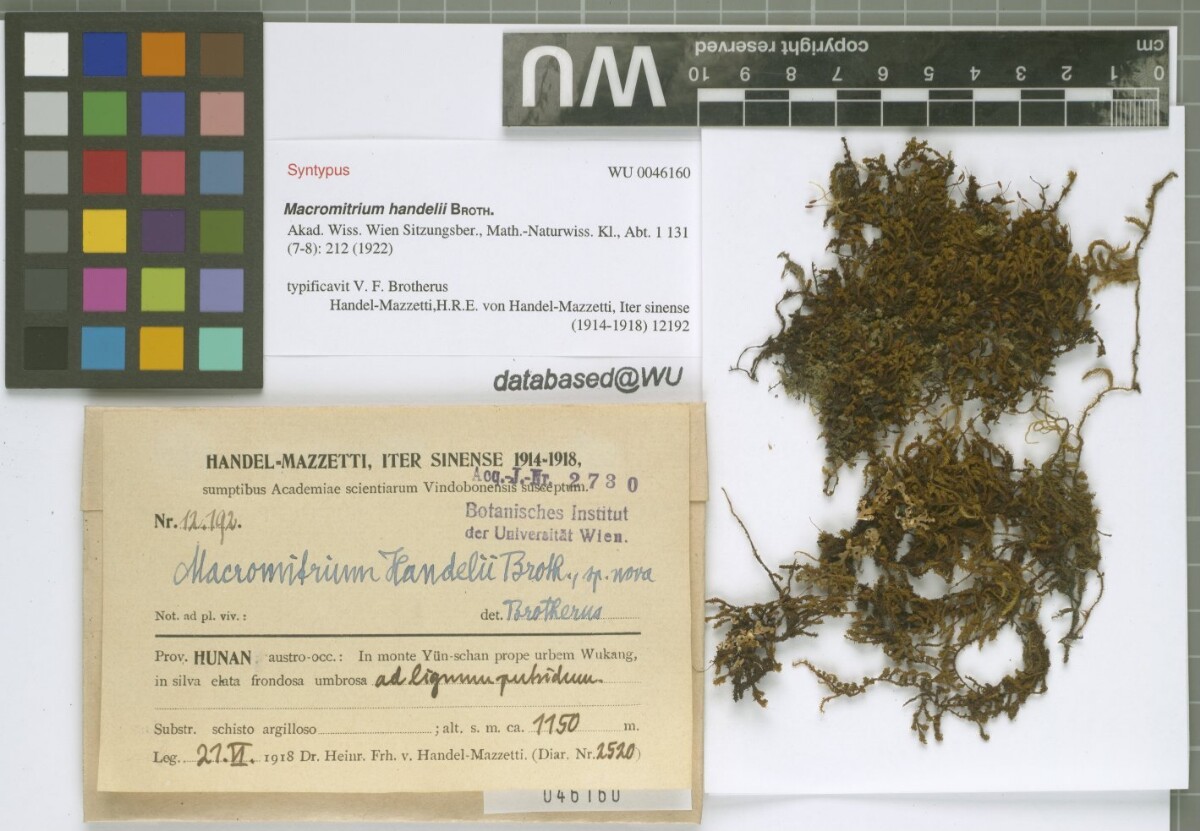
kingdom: Plantae
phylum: Bryophyta
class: Bryopsida
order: Orthotrichales
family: Orthotrichaceae
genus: Macromitrium
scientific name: Macromitrium cavaleriei
